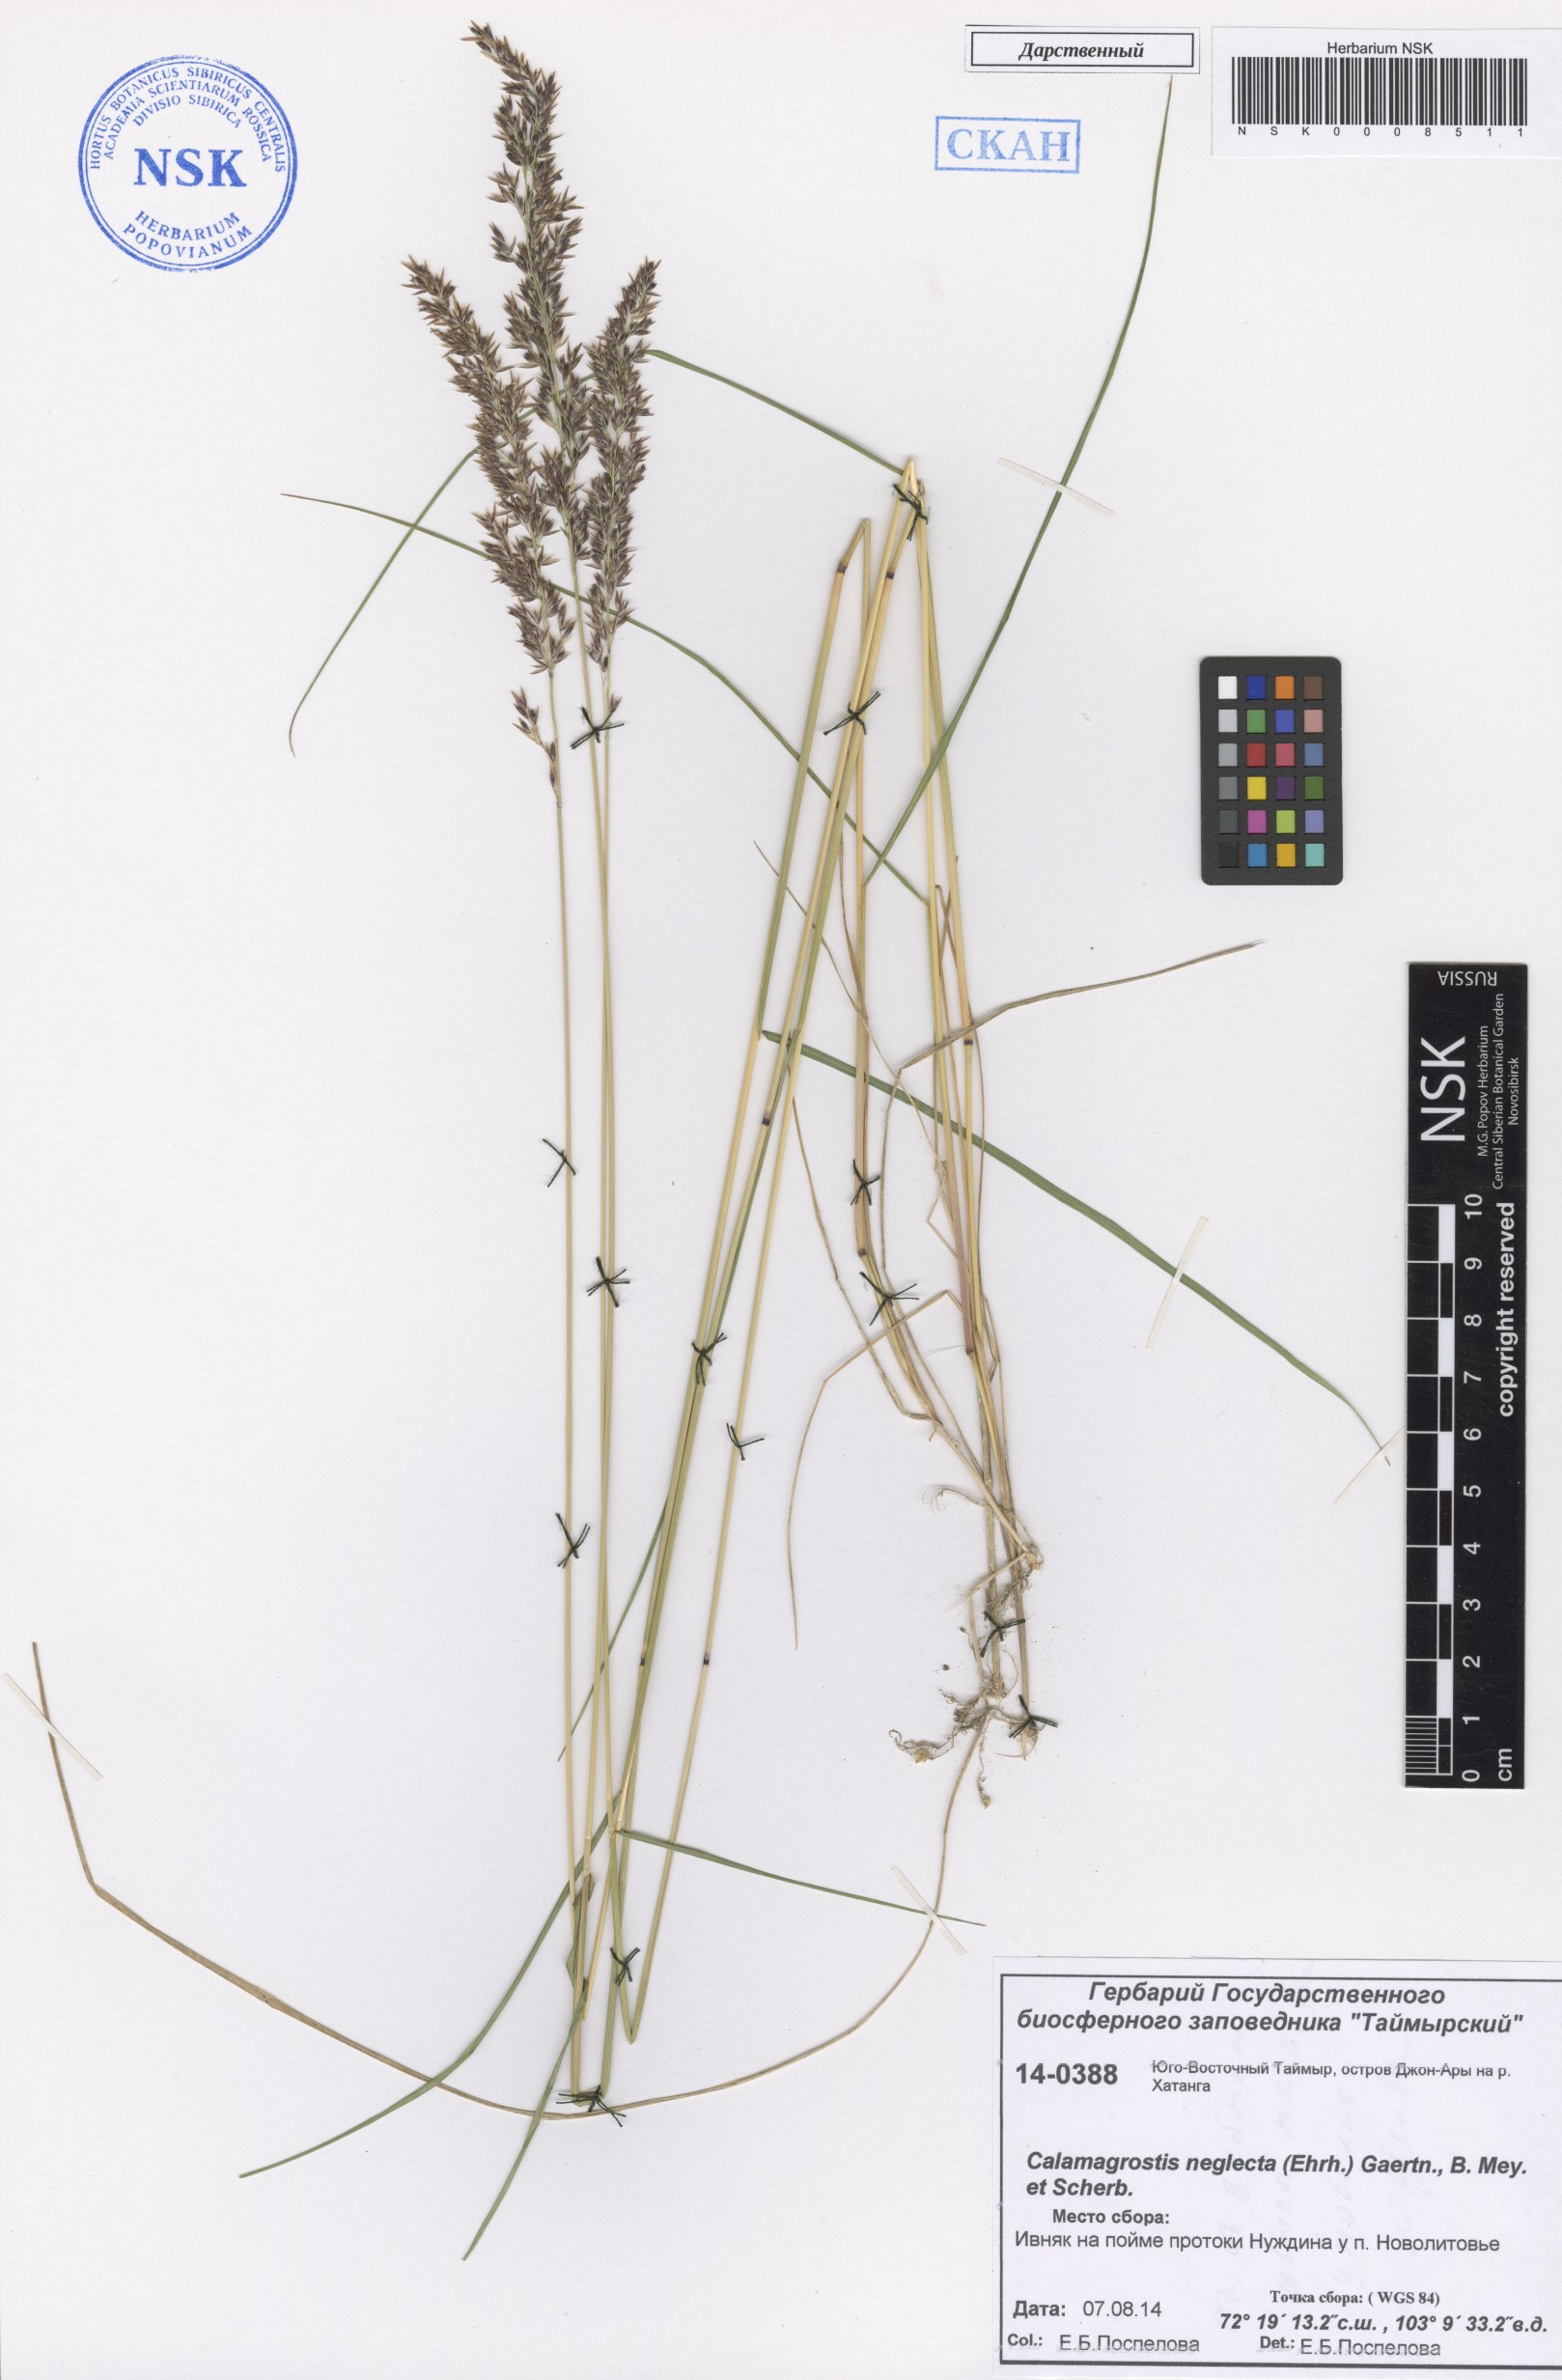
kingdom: Plantae
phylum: Tracheophyta
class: Liliopsida
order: Poales
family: Poaceae
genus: Achnatherum
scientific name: Achnatherum calamagrostis
